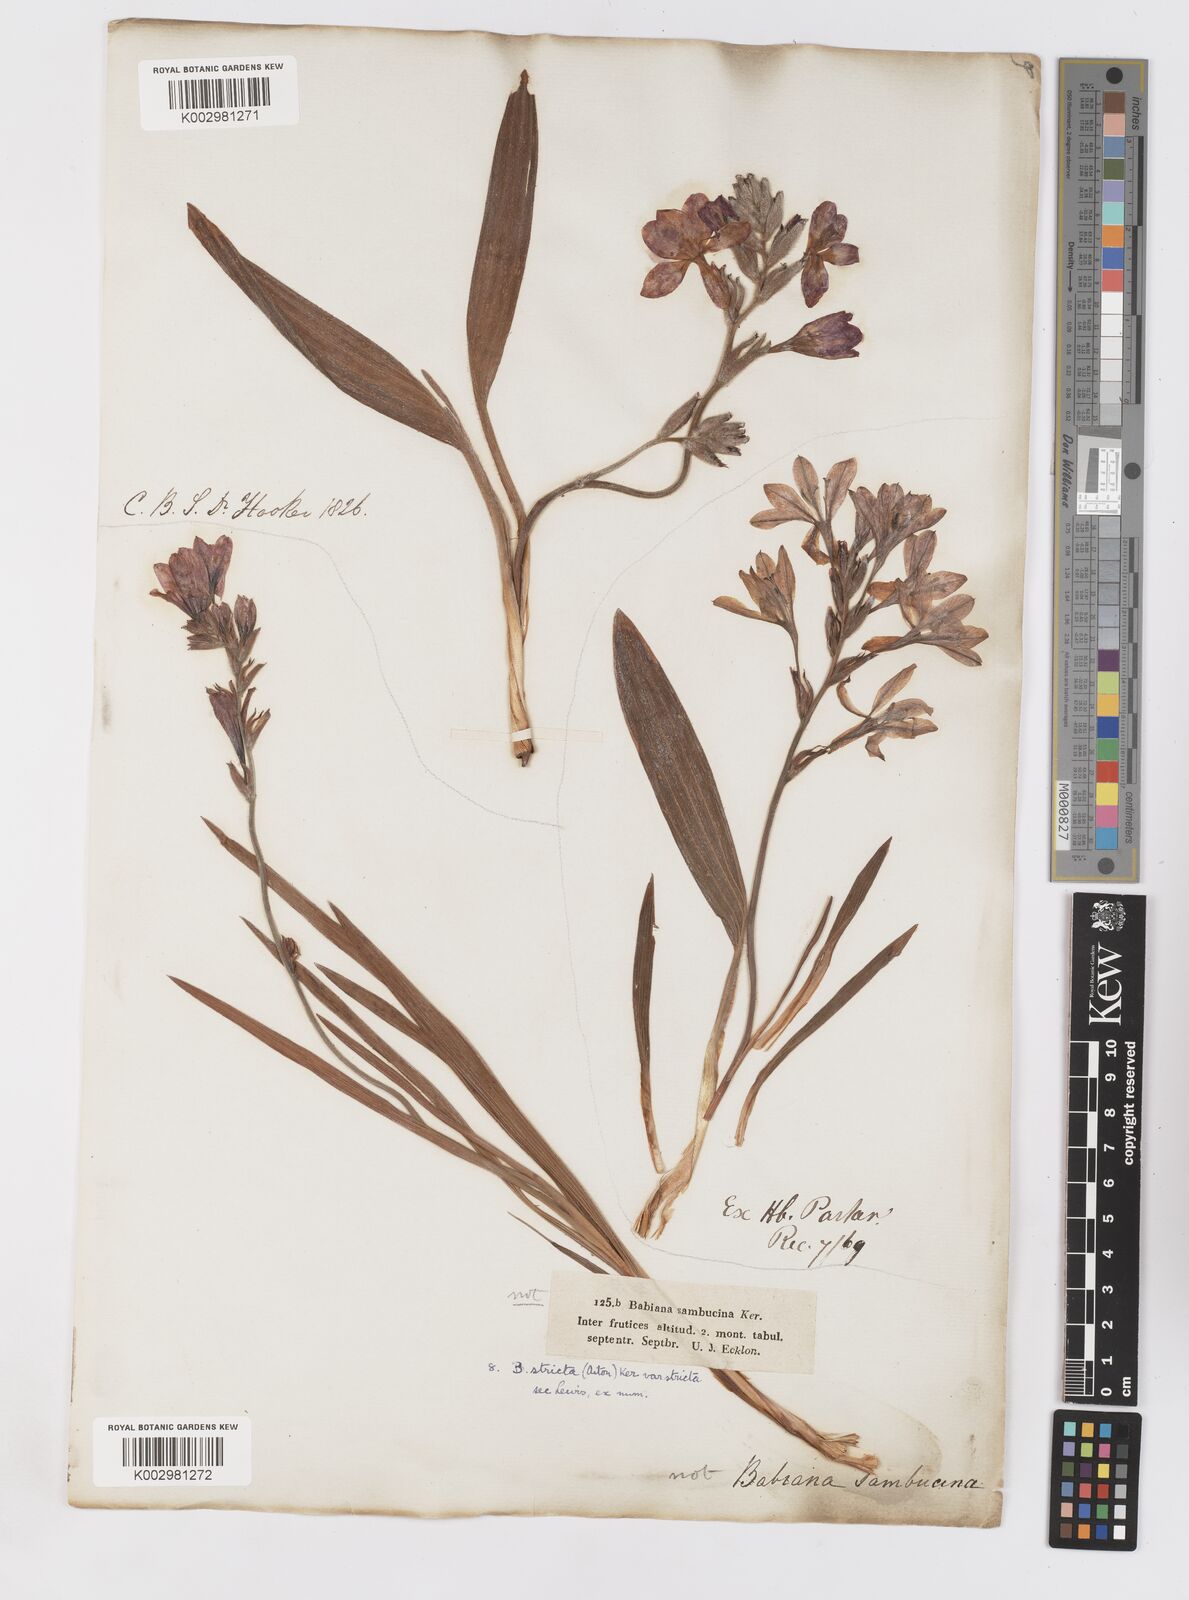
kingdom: Plantae
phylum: Tracheophyta
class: Liliopsida
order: Asparagales
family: Iridaceae
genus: Babiana
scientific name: Babiana regia
